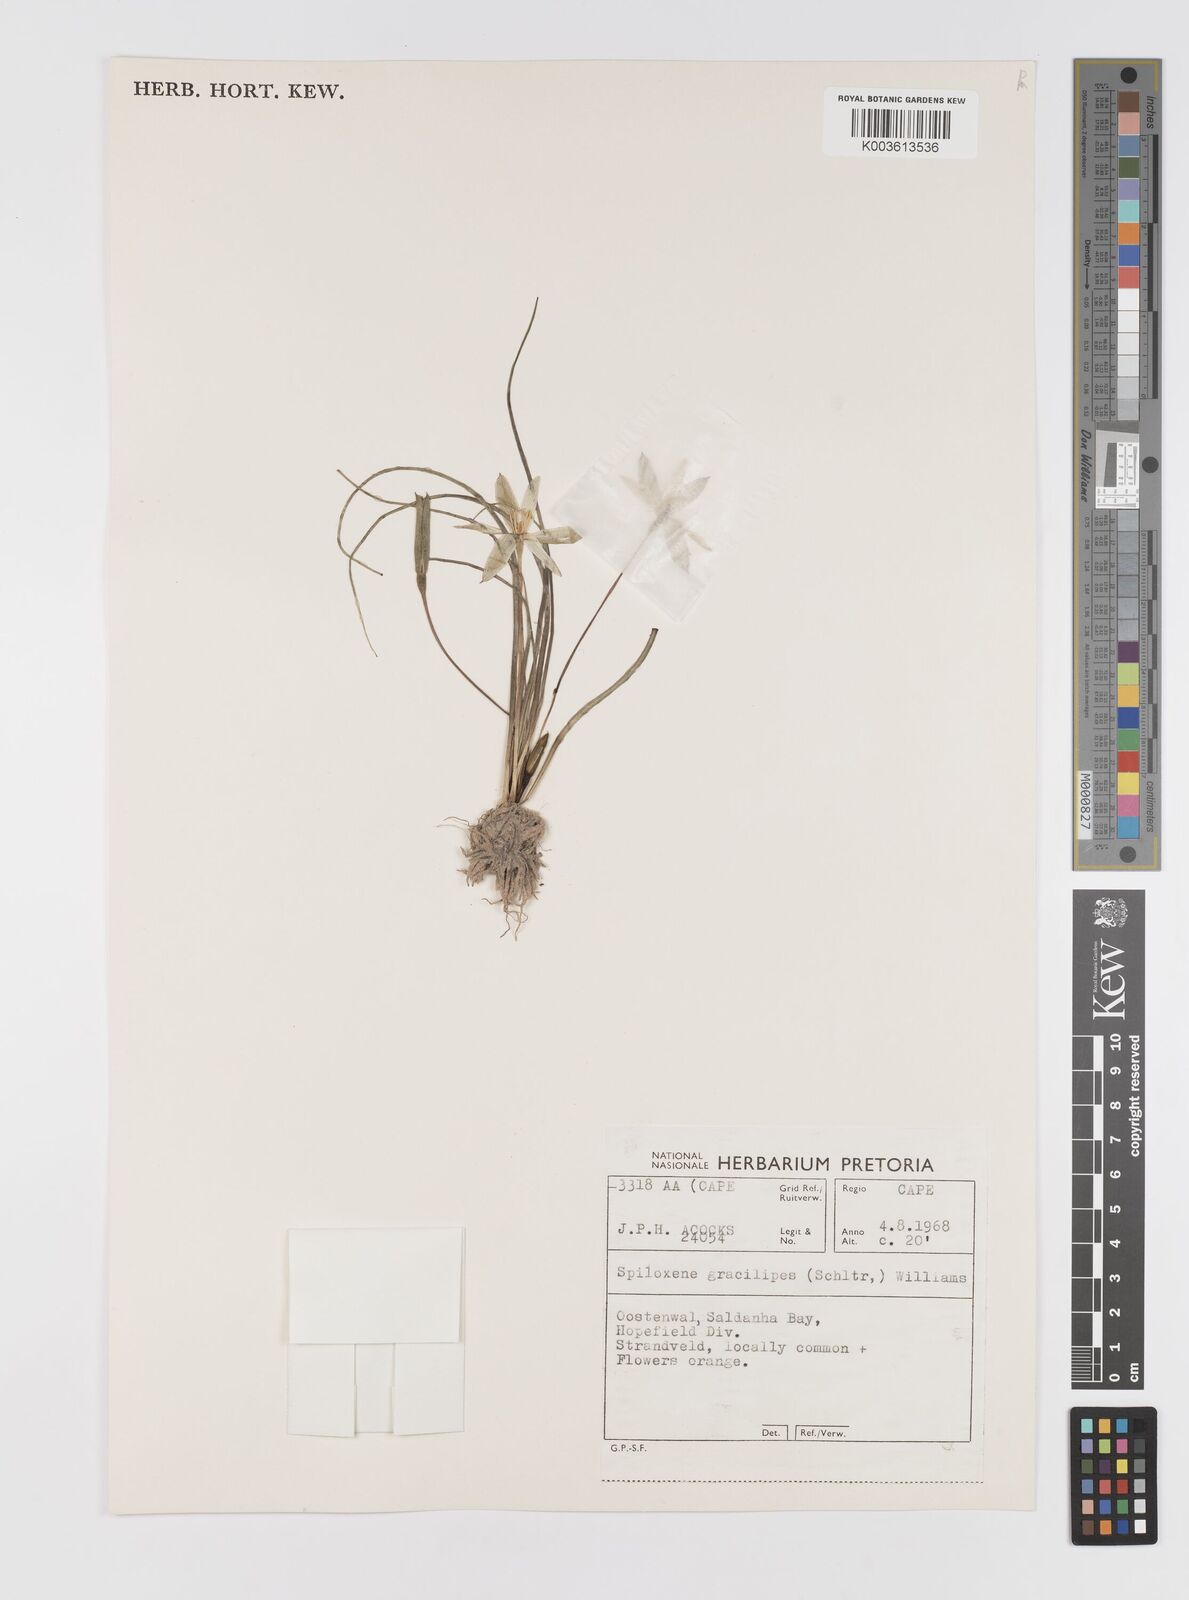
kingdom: Plantae
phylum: Tracheophyta
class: Liliopsida
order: Asparagales
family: Hypoxidaceae
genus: Pauridia
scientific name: Pauridia gracilipes
